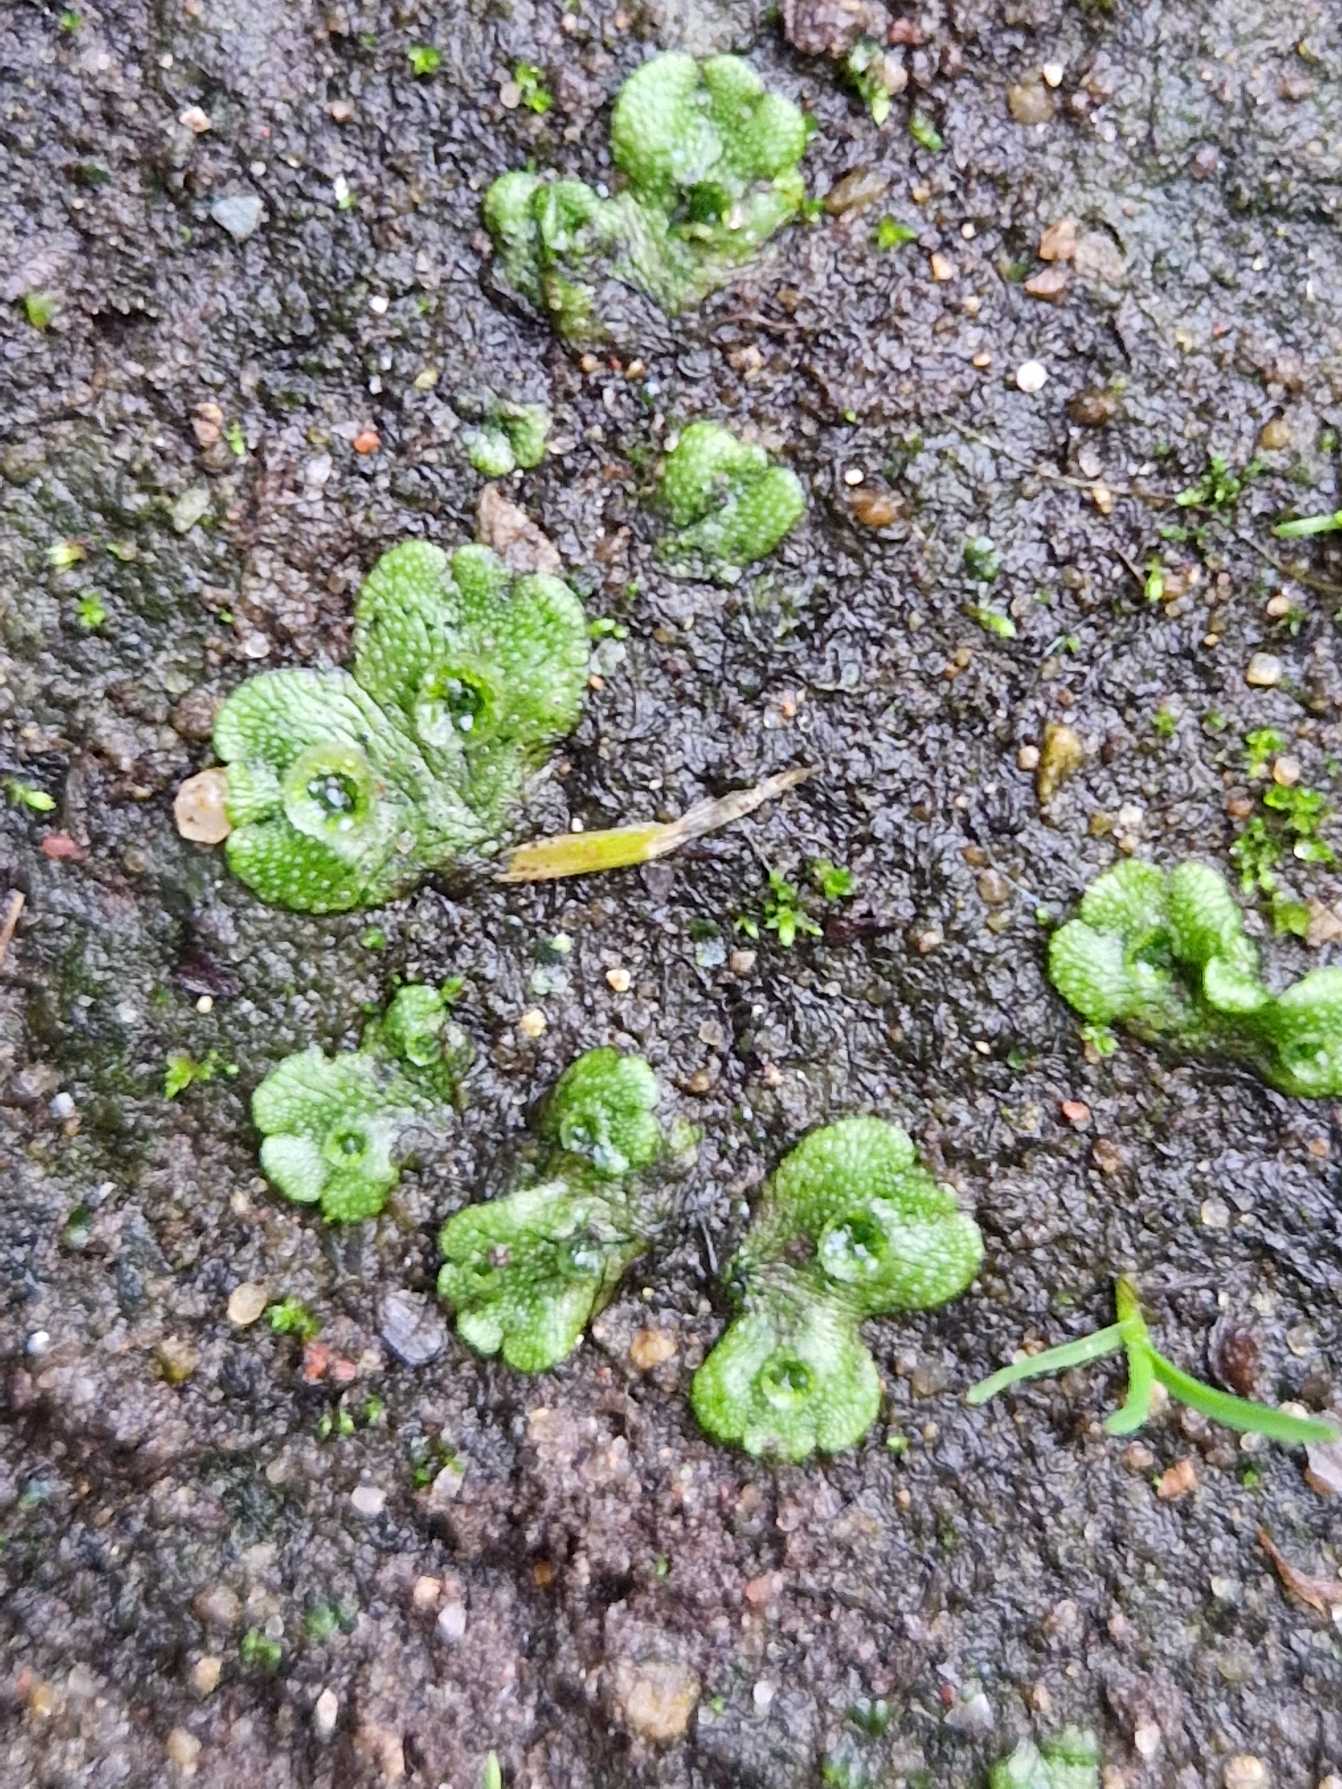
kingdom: Plantae
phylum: Marchantiophyta
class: Marchantiopsida
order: Marchantiales
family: Marchantiaceae
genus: Marchantia
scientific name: Marchantia polymorpha
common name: Almindelig lungemos
